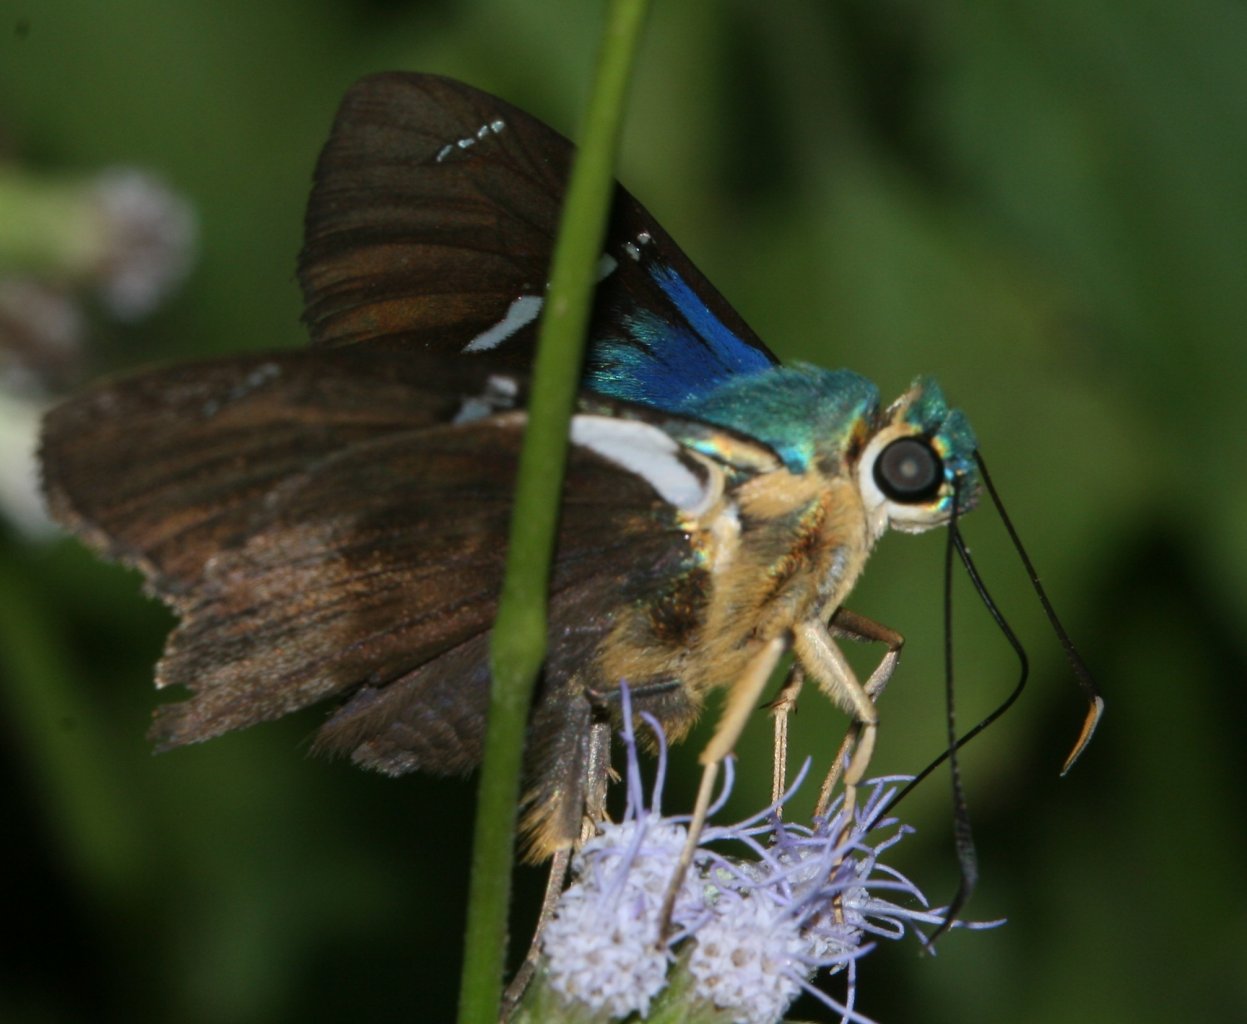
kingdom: Animalia
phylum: Arthropoda
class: Insecta
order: Lepidoptera
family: Hesperiidae
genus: Astraptes
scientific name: Astraptes fulgerator
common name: Two-barred Flasher
